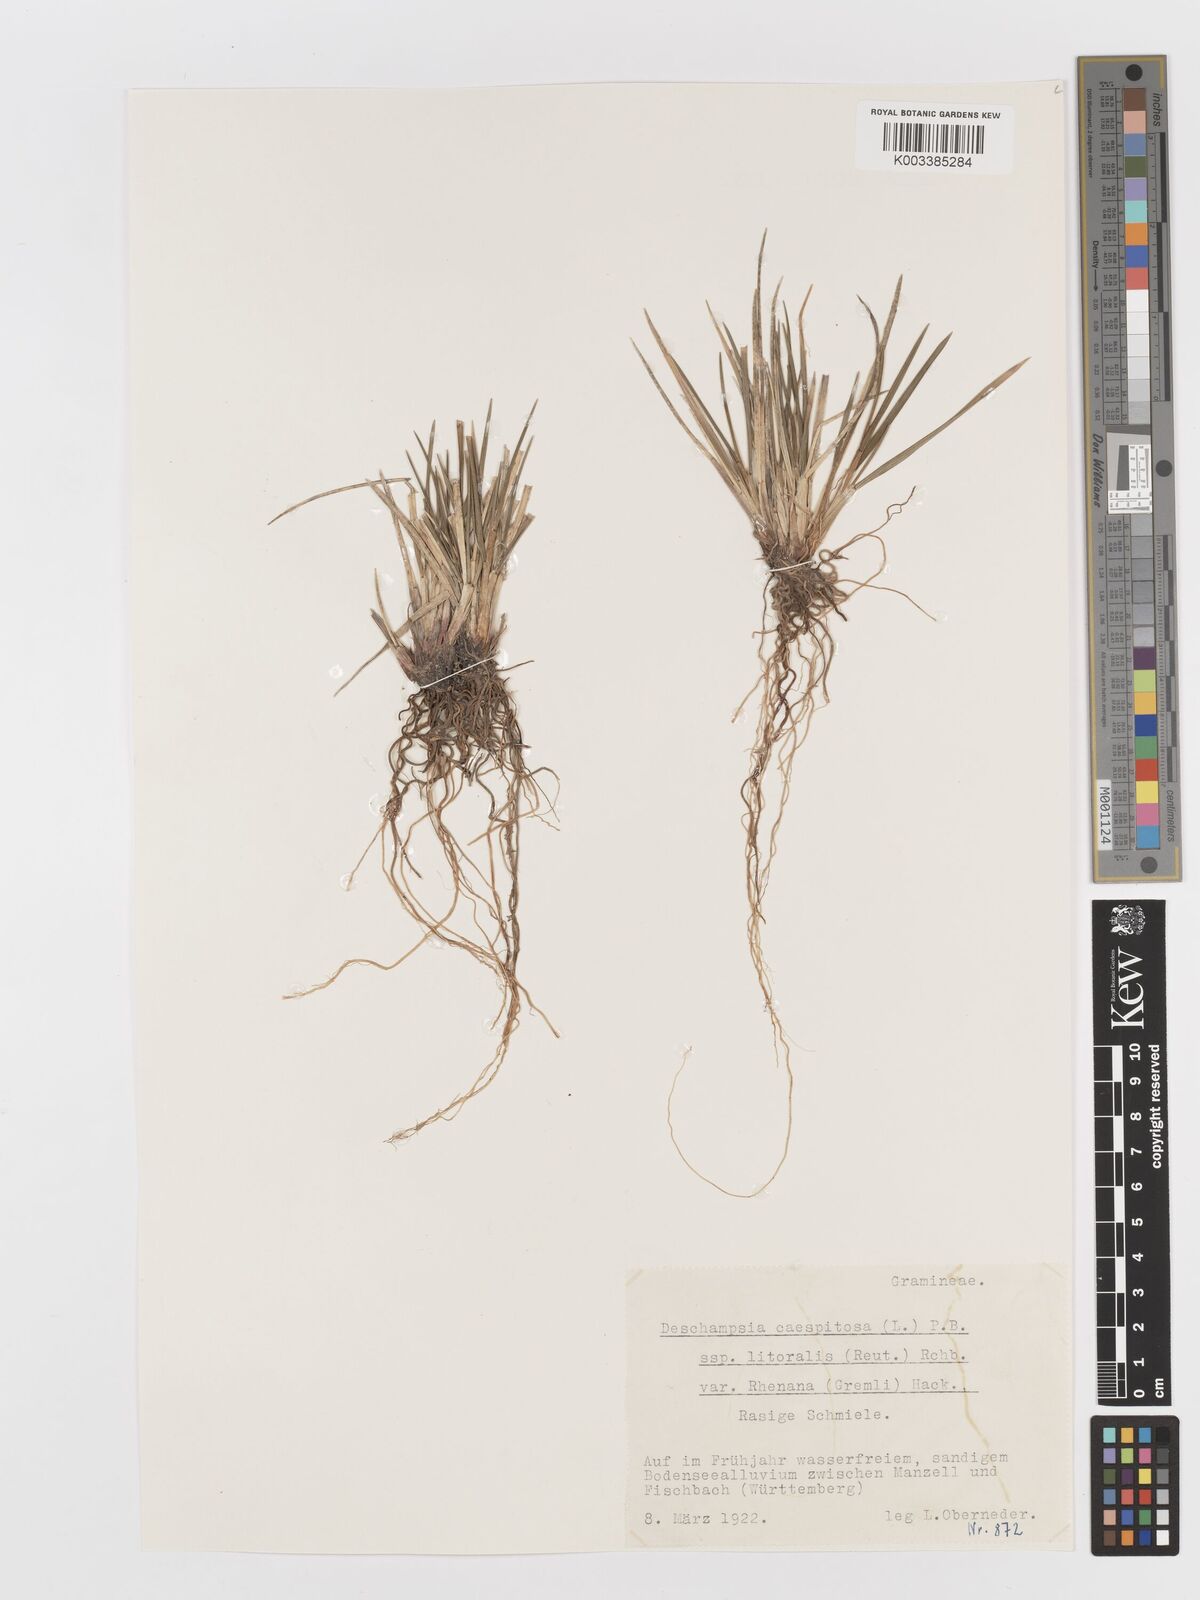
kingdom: Plantae
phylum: Tracheophyta
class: Liliopsida
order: Poales
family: Poaceae
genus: Deschampsia
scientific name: Deschampsia cespitosa
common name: Tufted hair-grass
